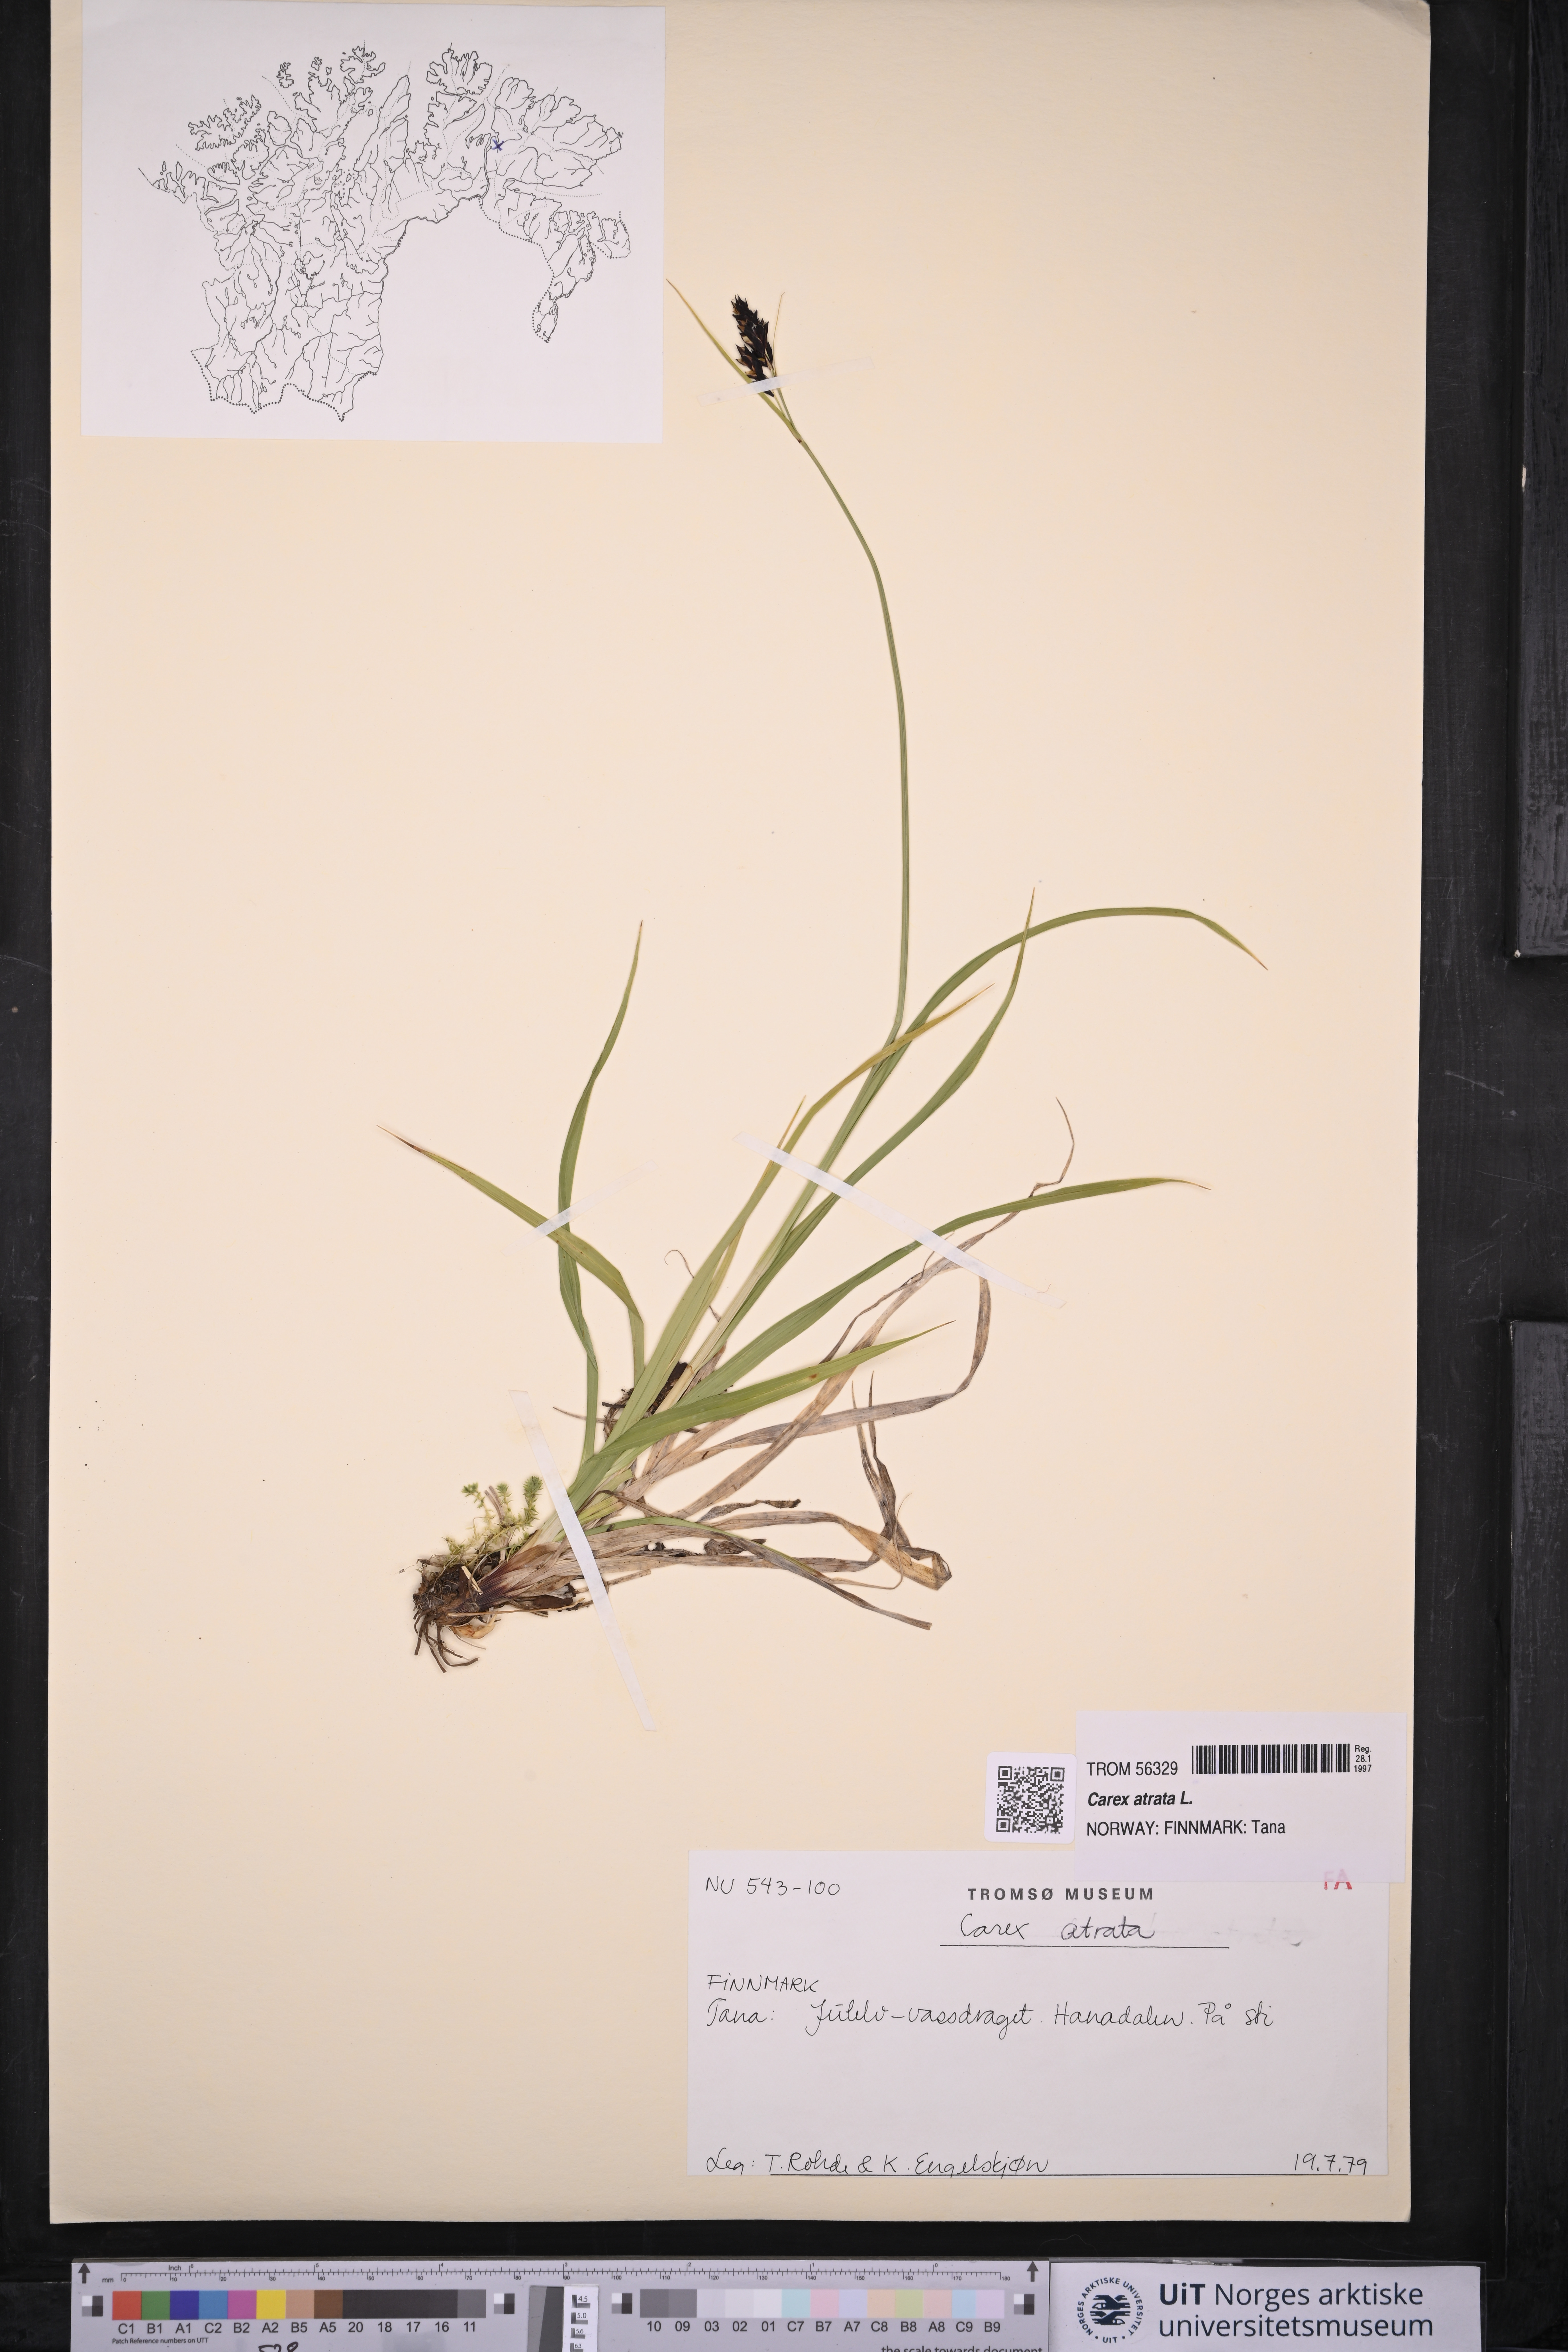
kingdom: Plantae
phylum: Tracheophyta
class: Liliopsida
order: Poales
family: Cyperaceae
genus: Carex
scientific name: Carex atrata
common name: Black alpine sedge
